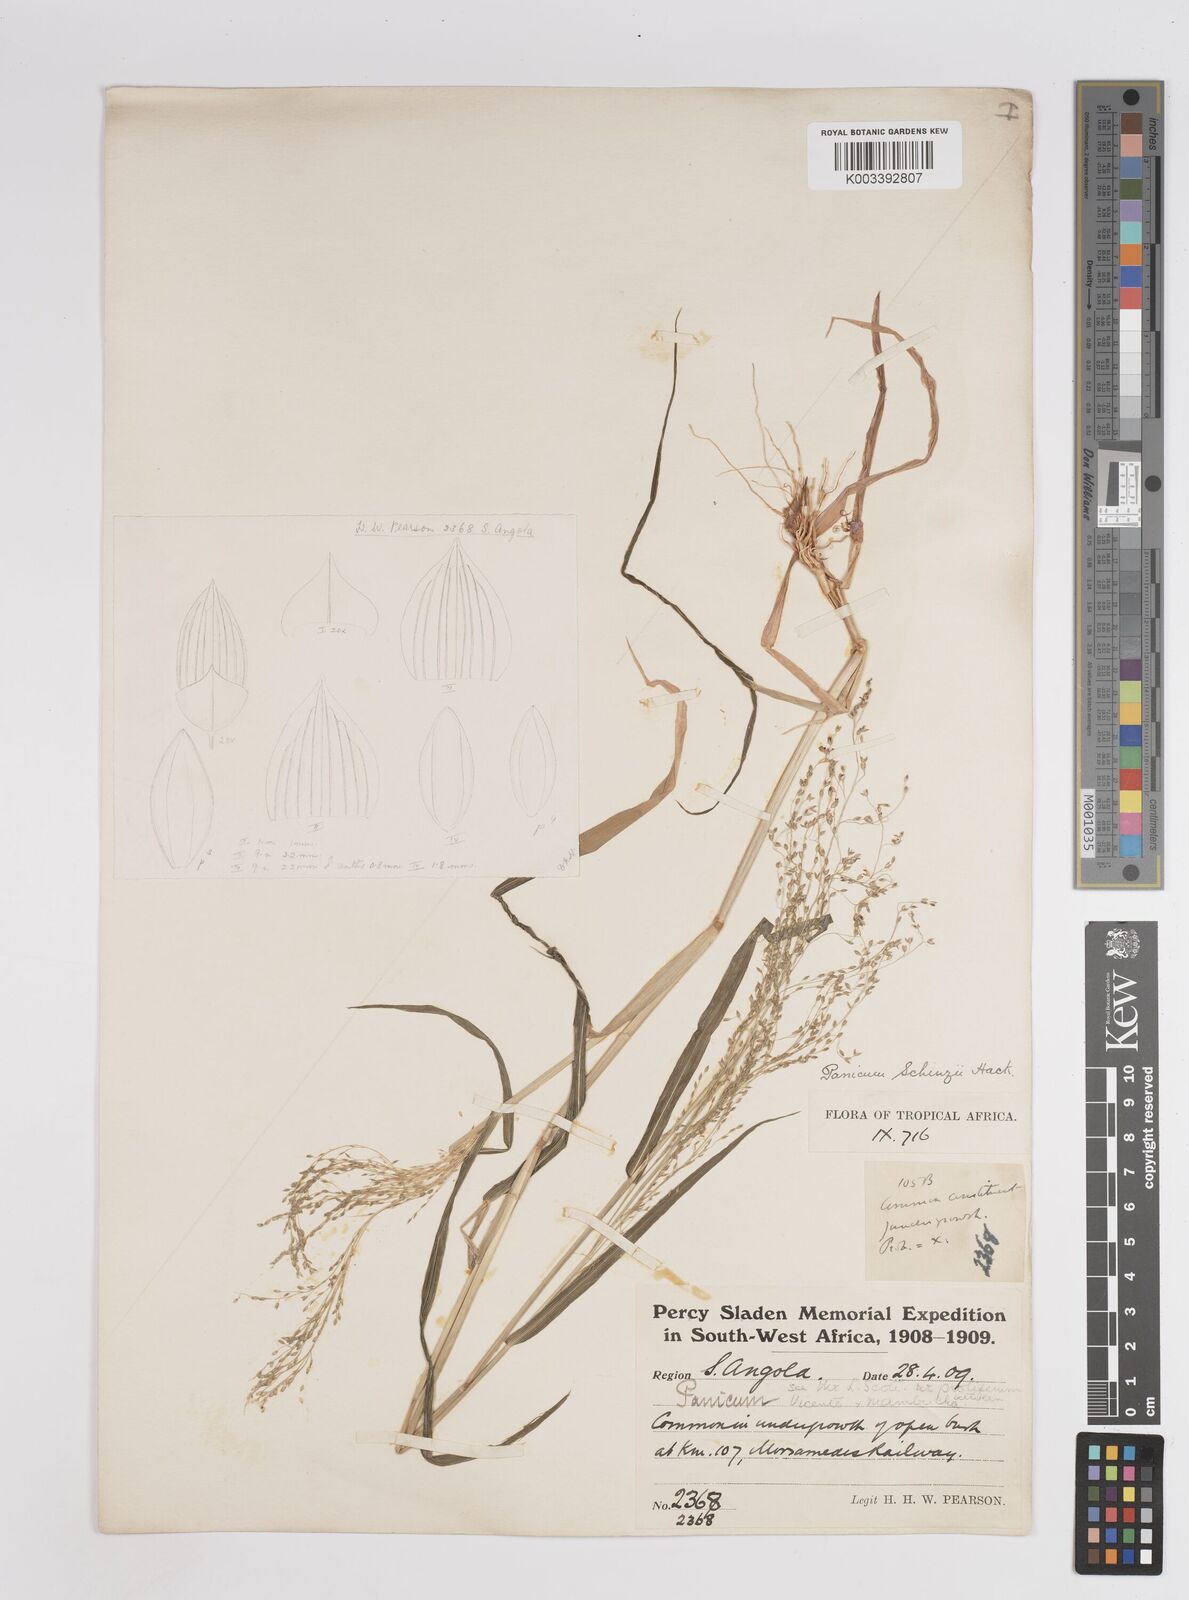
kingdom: Plantae
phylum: Tracheophyta
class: Liliopsida
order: Poales
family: Poaceae
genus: Panicum
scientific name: Panicum schinzii
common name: Sweet grass
